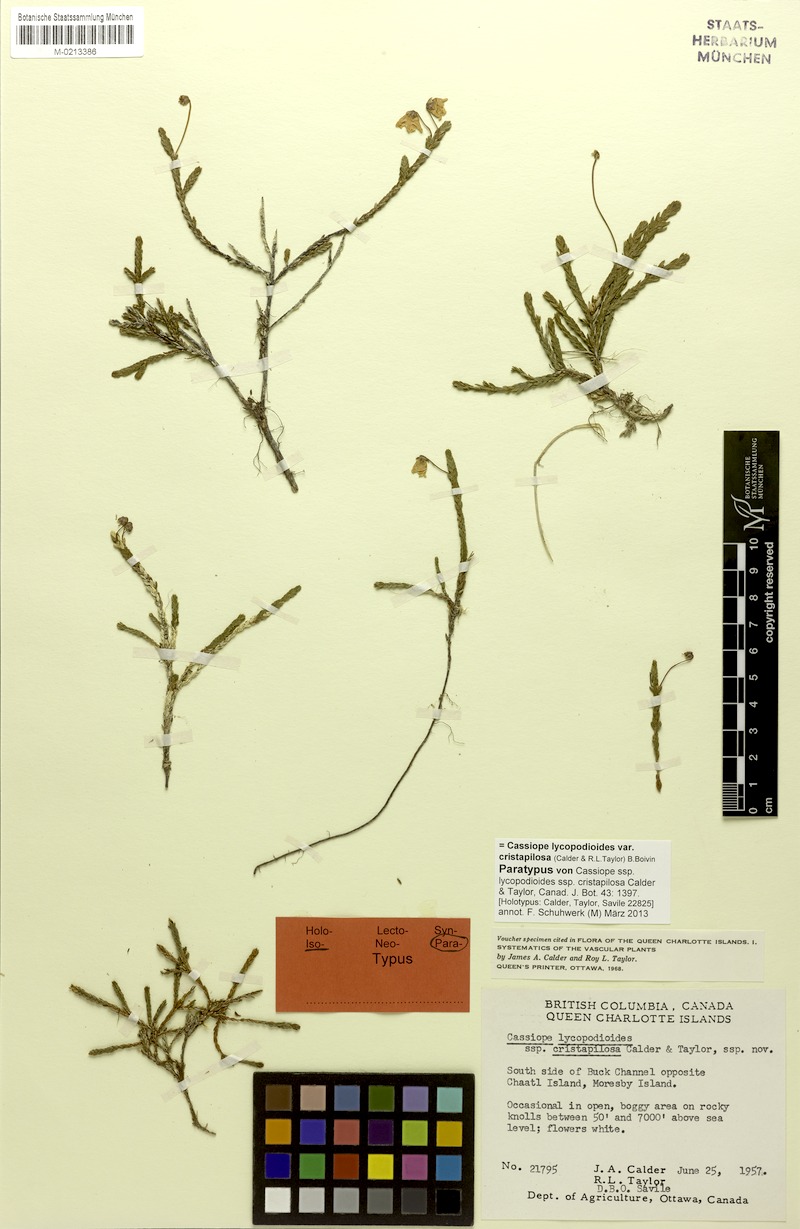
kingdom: Plantae
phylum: Tracheophyta
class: Magnoliopsida
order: Ericales
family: Ericaceae
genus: Cassiope
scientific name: Cassiope lycopodioides
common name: Clubmoss mountain heather
